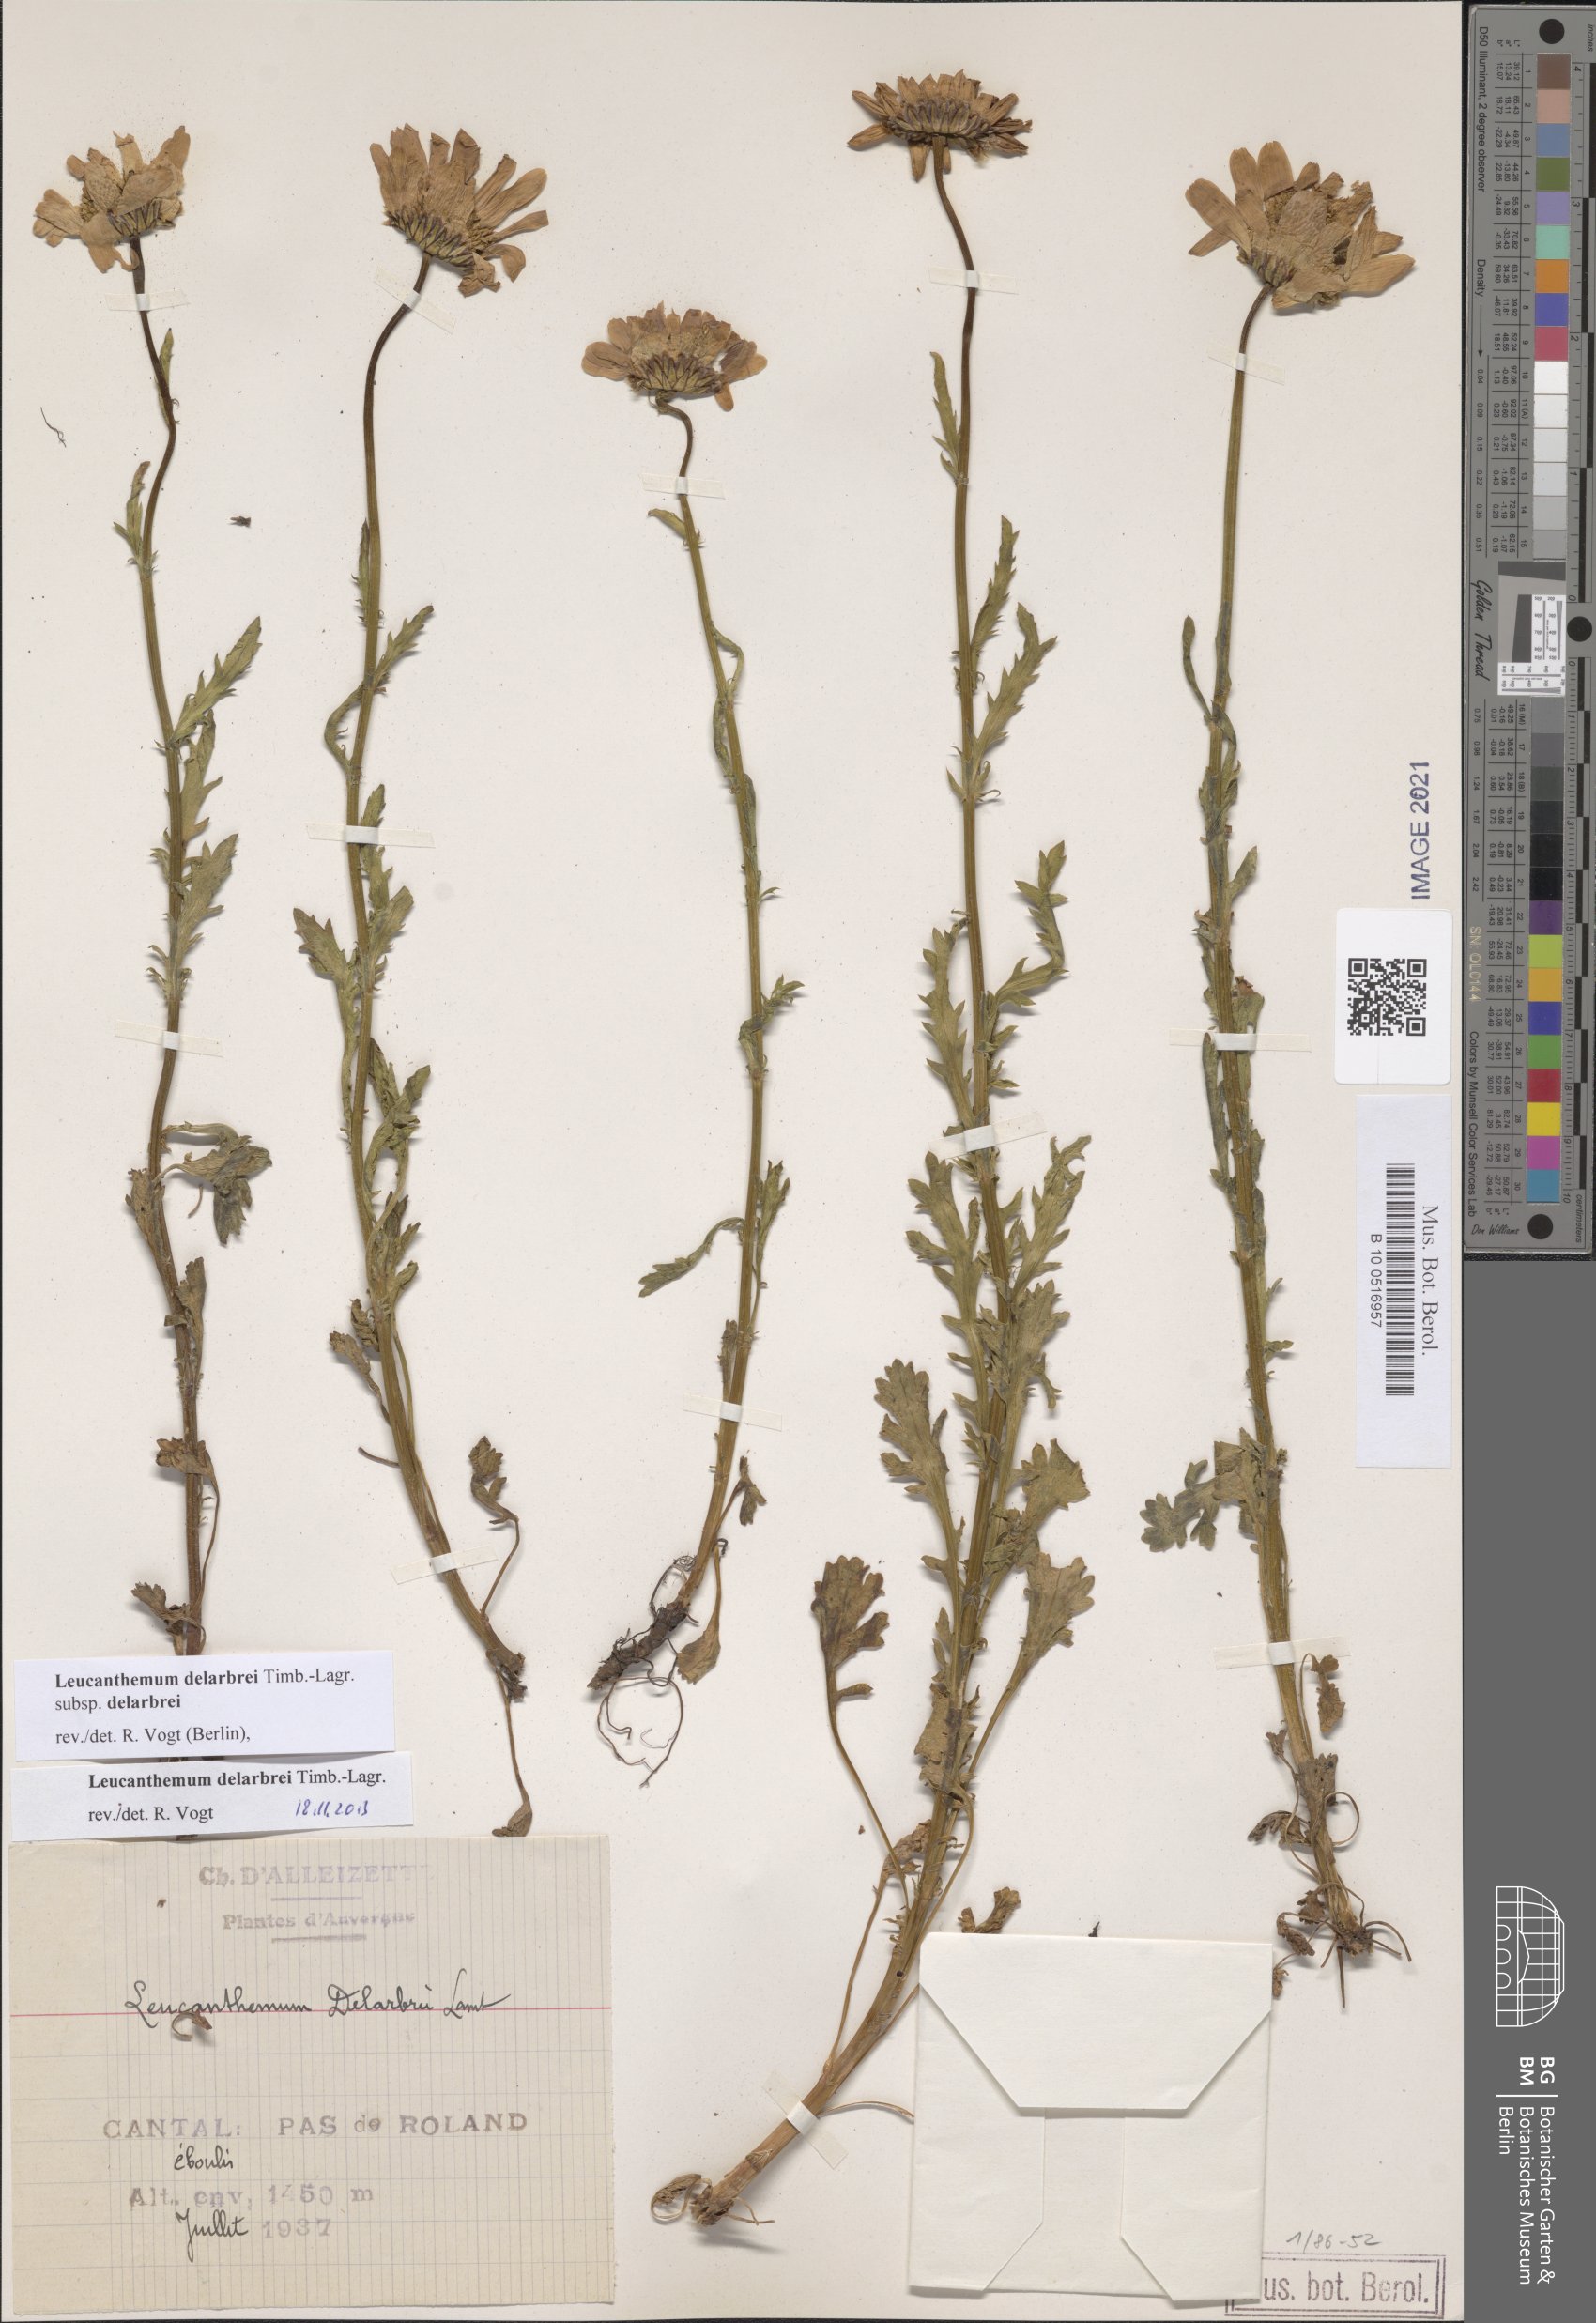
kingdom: Plantae
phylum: Tracheophyta
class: Magnoliopsida
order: Asterales
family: Asteraceae
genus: Leucanthemum
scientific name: Leucanthemum delarbrei
